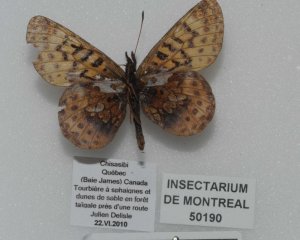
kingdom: Animalia
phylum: Arthropoda
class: Insecta
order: Lepidoptera
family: Nymphalidae
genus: Boloria
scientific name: Boloria frigga
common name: Frigga Fritillary
